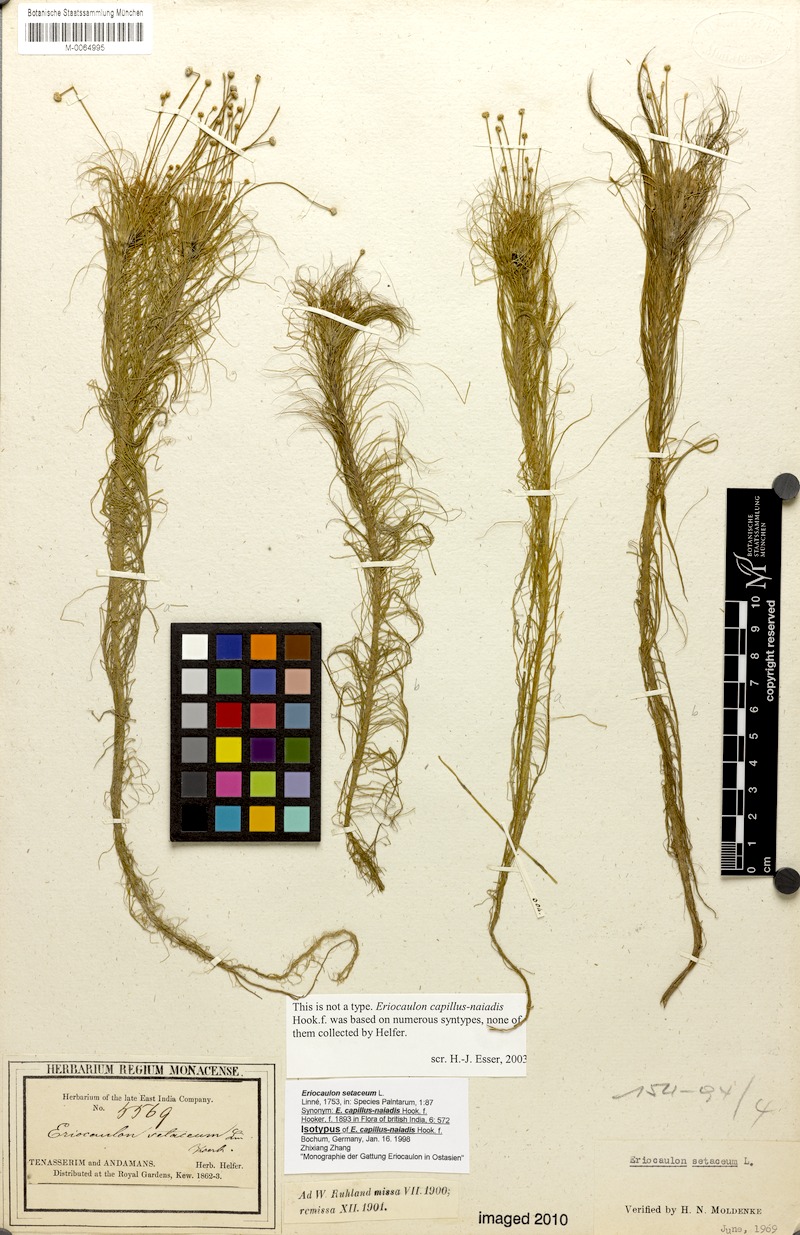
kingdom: Plantae
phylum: Tracheophyta
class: Liliopsida
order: Poales
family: Eriocaulaceae
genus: Eriocaulon
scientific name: Eriocaulon setaceum
